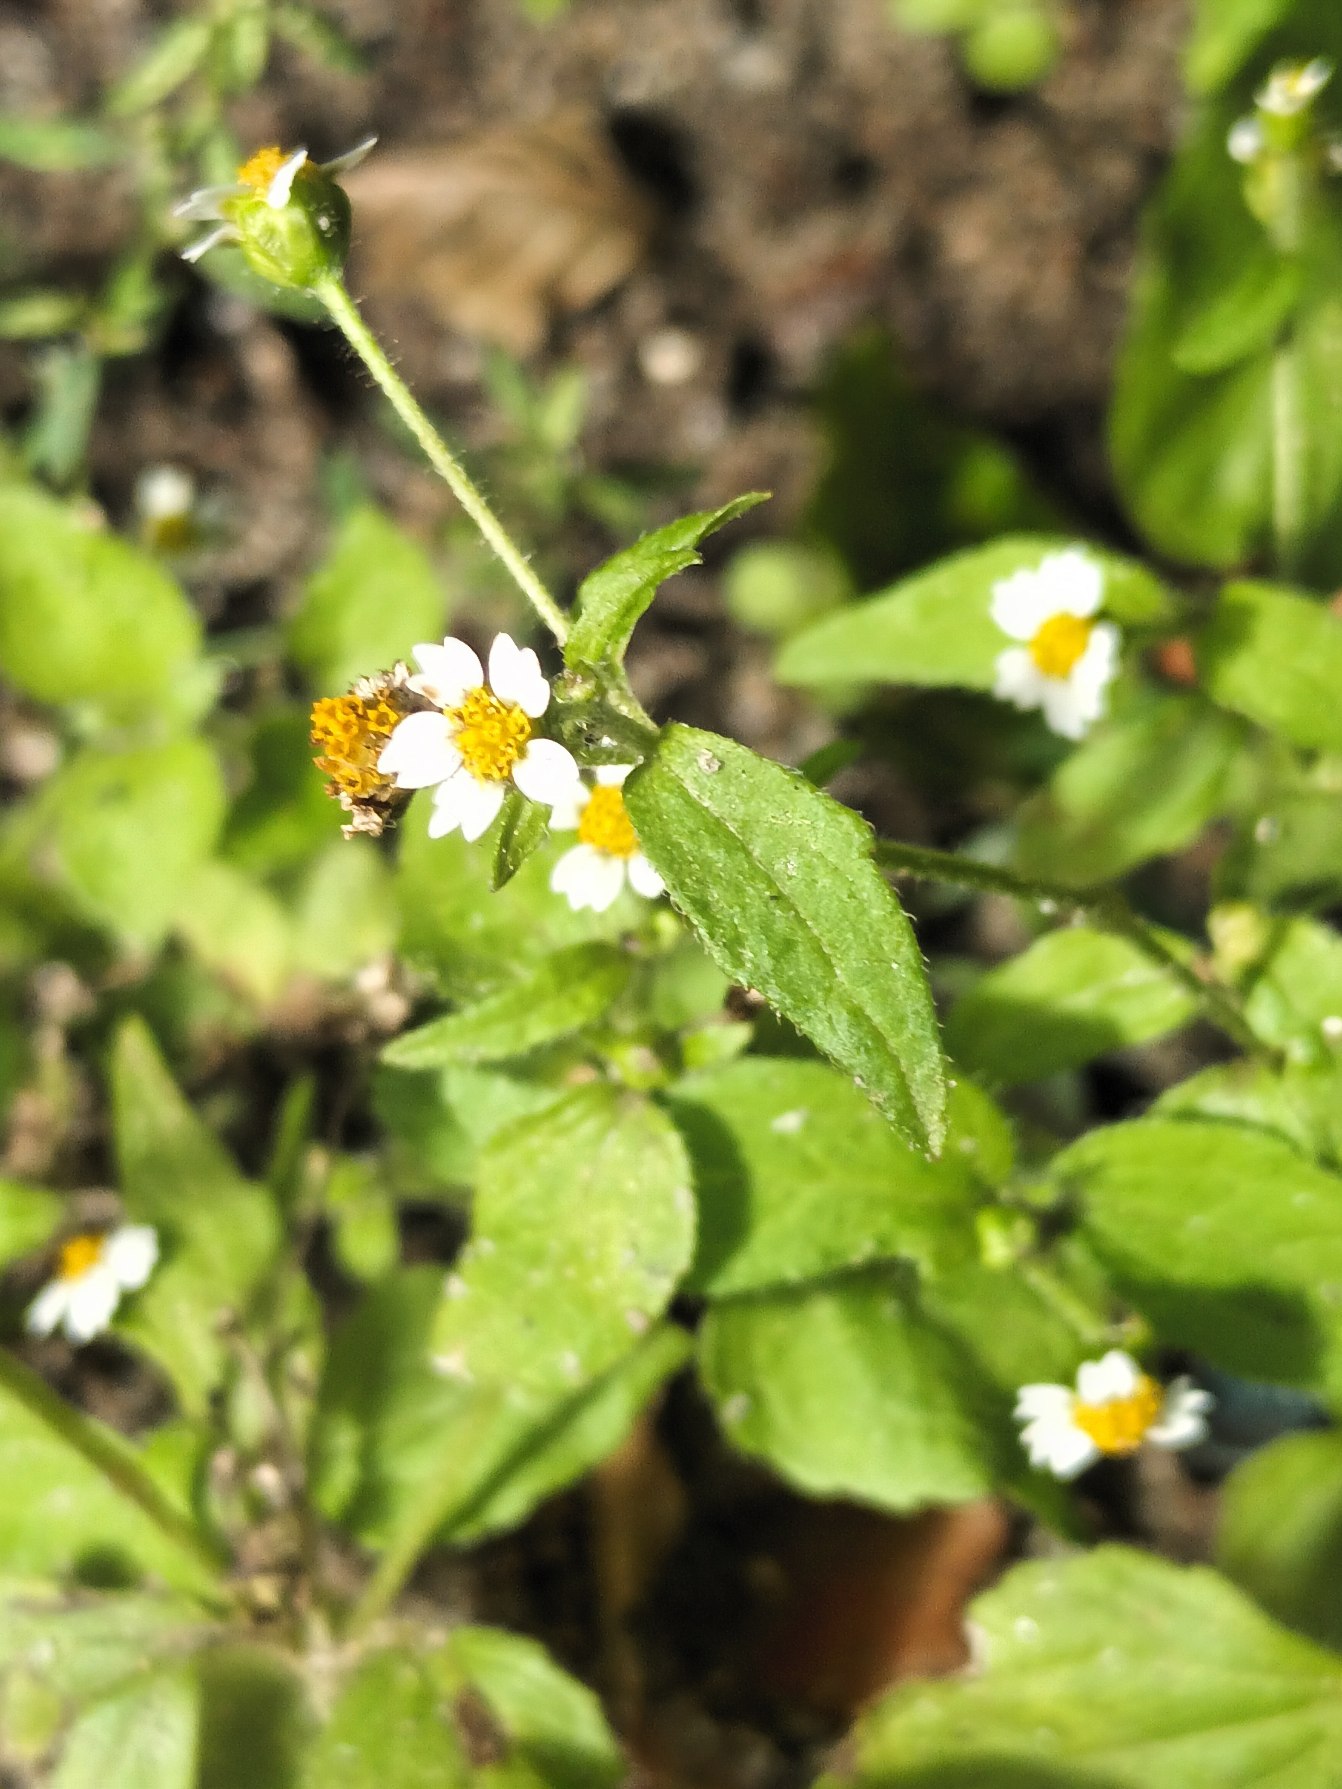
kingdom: Plantae
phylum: Tracheophyta
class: Magnoliopsida
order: Asterales
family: Asteraceae
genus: Galinsoga
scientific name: Galinsoga quadriradiata
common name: Kirtel-kortstråle
